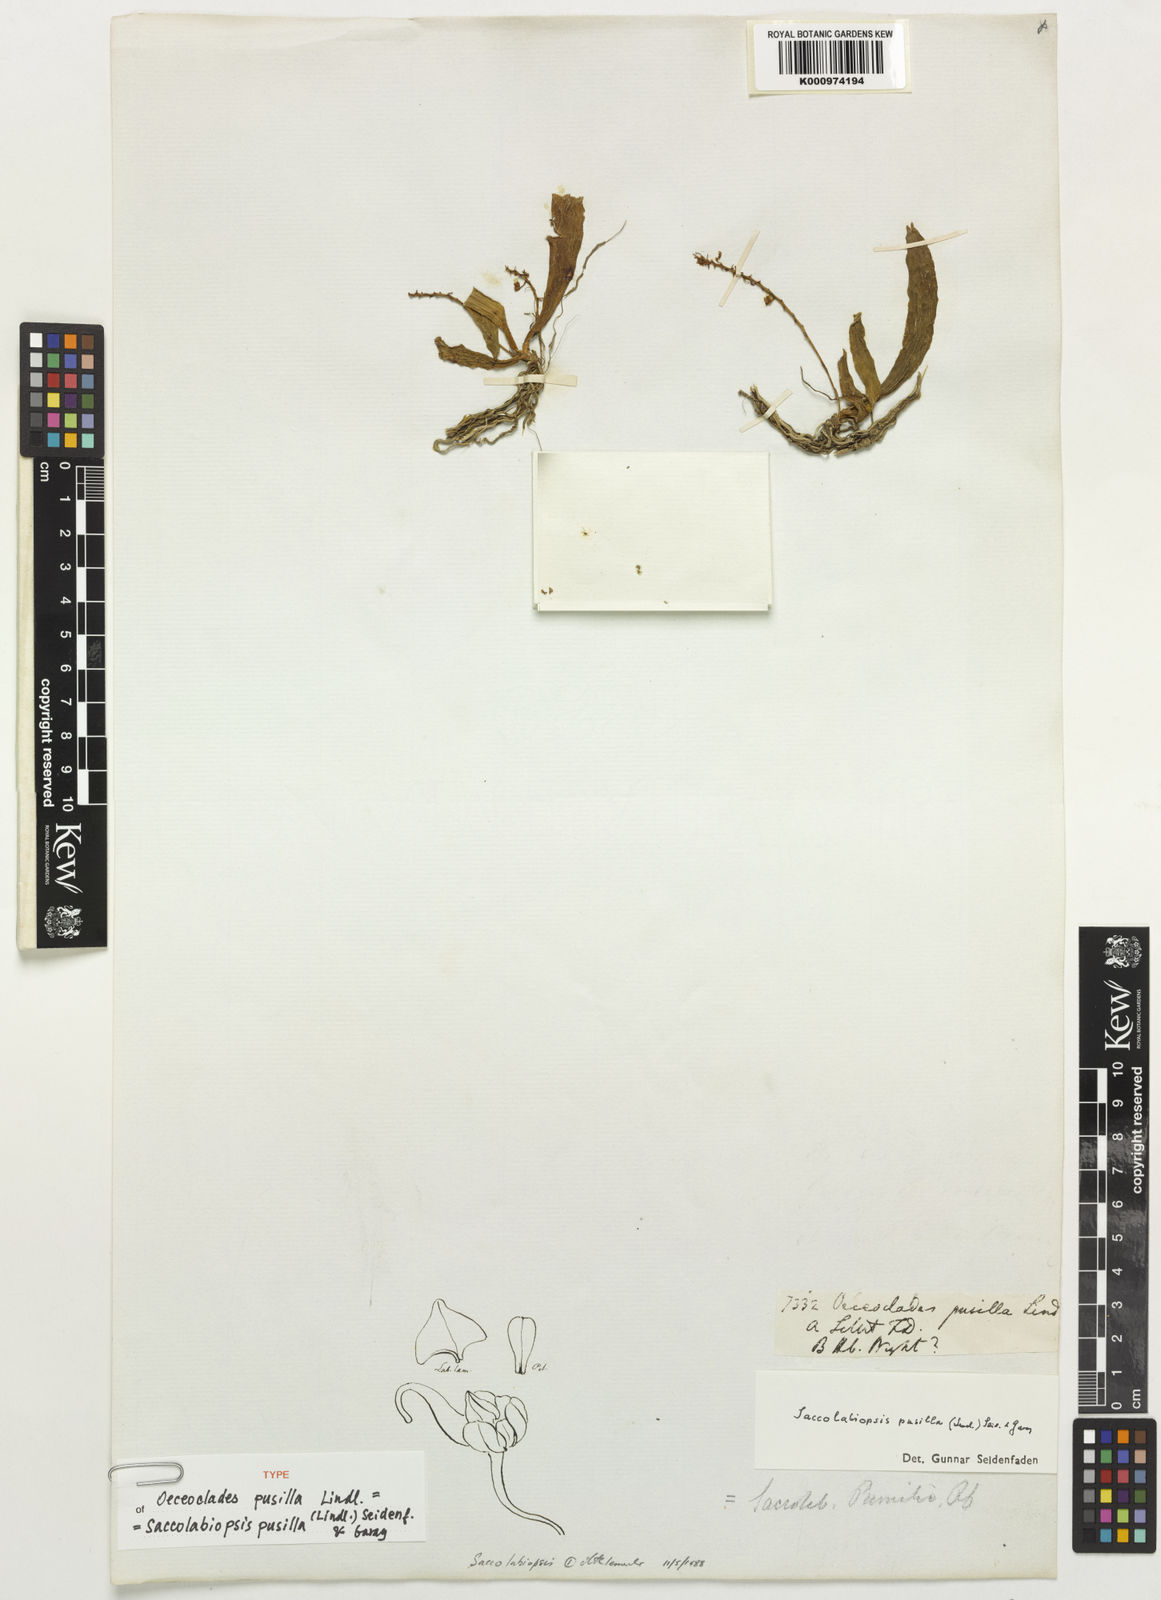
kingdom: Plantae
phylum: Tracheophyta
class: Liliopsida
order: Asparagales
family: Orchidaceae
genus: Saccolabiopsis
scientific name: Saccolabiopsis pusilla
